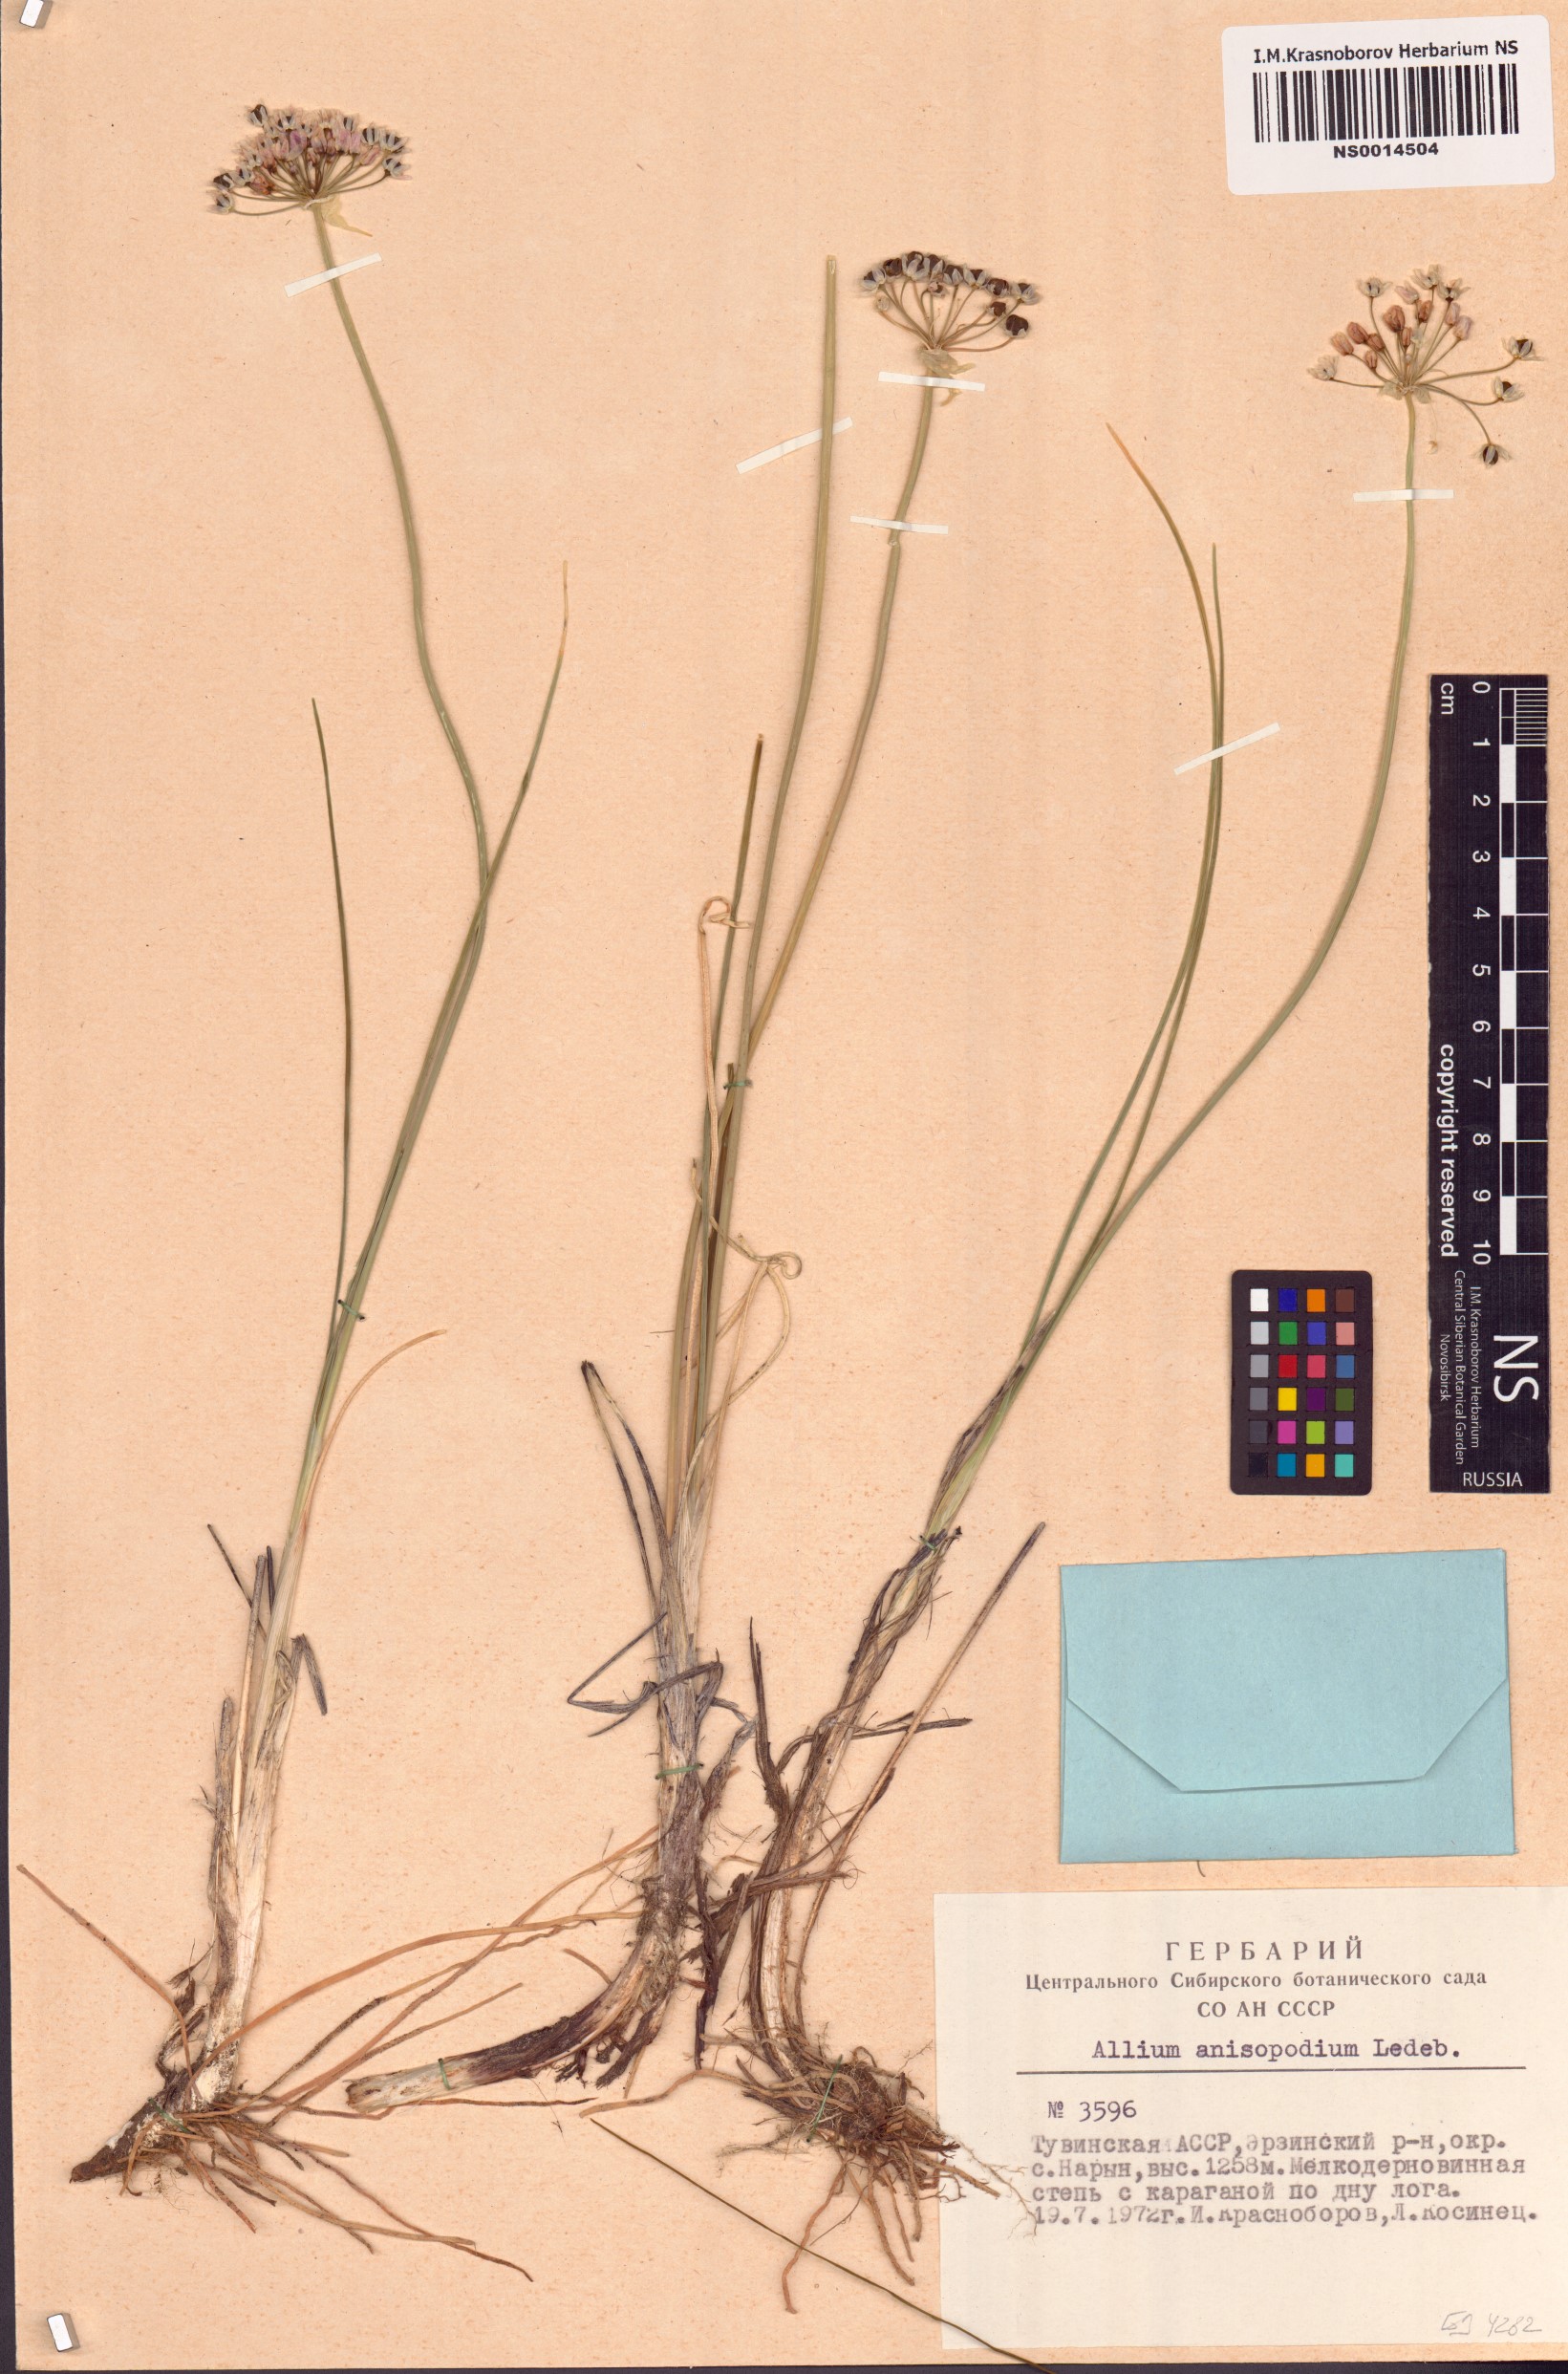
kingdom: Plantae
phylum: Tracheophyta
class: Liliopsida
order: Asparagales
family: Amaryllidaceae
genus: Allium
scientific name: Allium anisopodium
